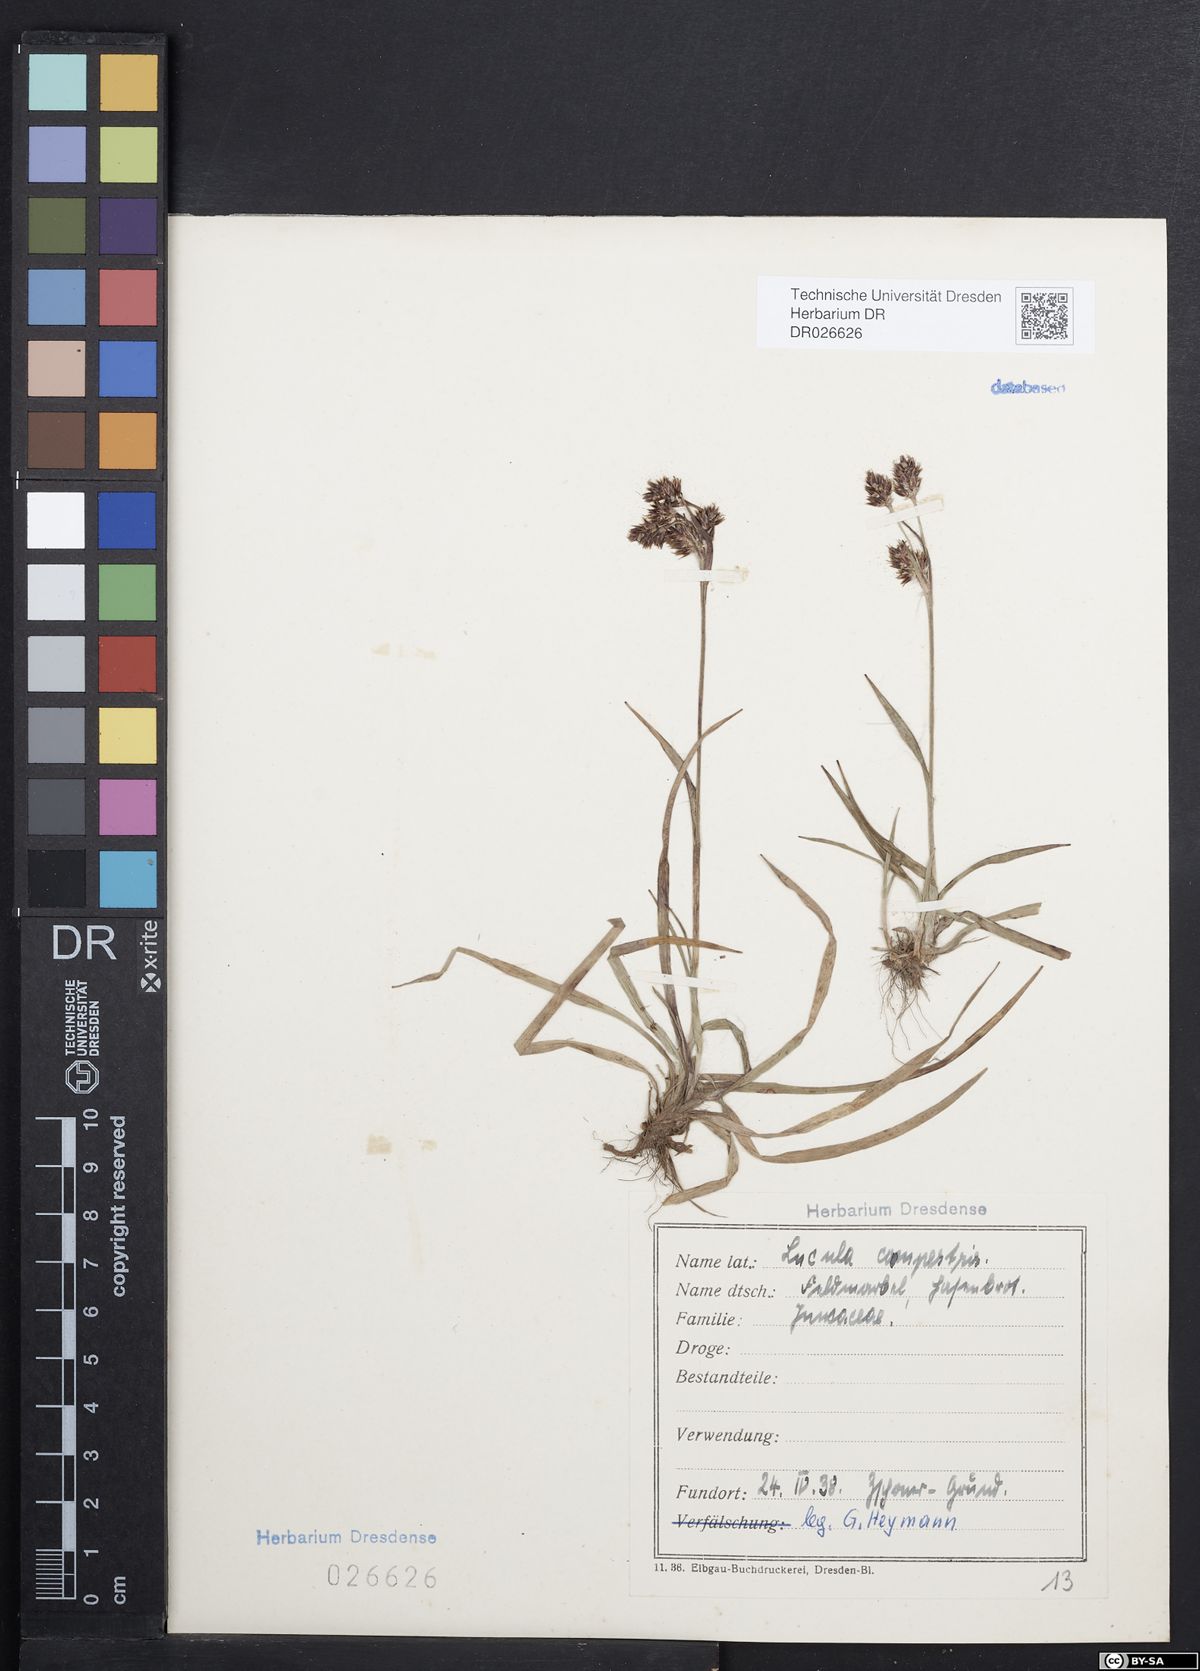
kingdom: Plantae
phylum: Tracheophyta
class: Liliopsida
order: Poales
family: Juncaceae
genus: Luzula
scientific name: Luzula campestris
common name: Field wood-rush
